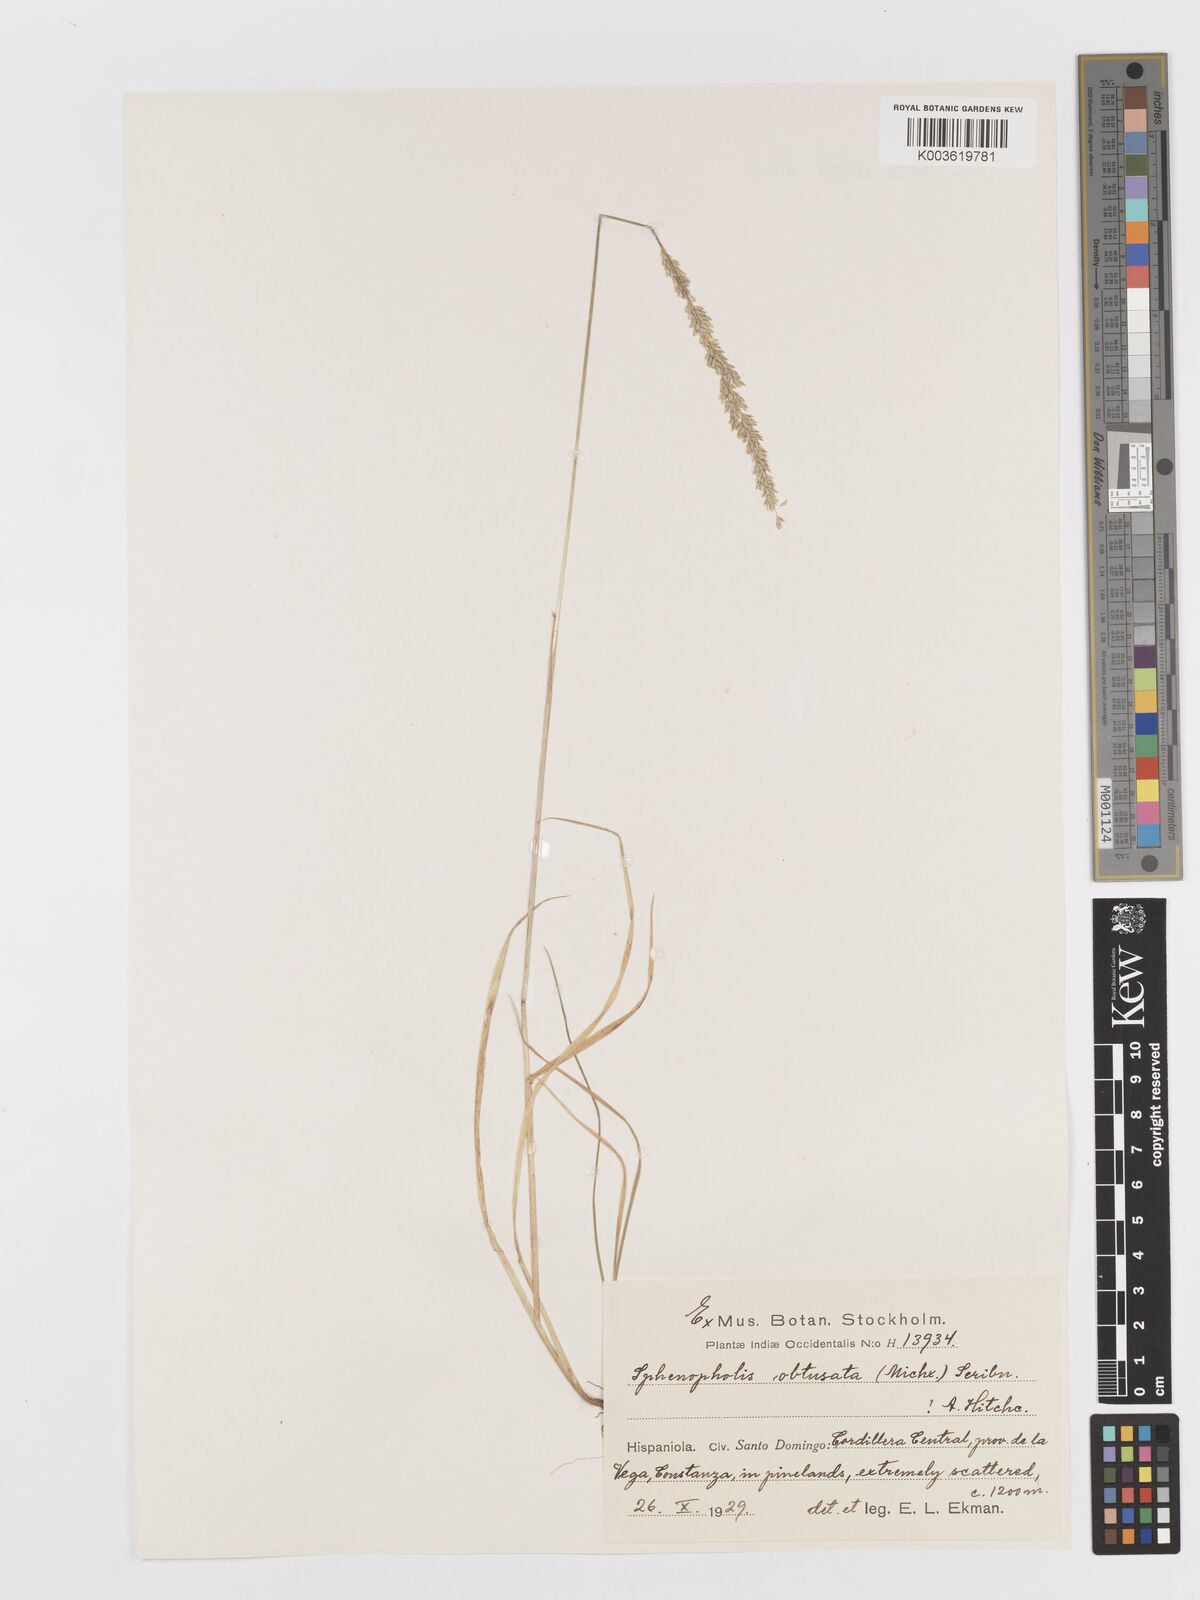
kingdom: Plantae
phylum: Tracheophyta
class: Liliopsida
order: Poales
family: Poaceae
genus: Sphenopholis
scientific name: Sphenopholis obtusata
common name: Prairie grass
